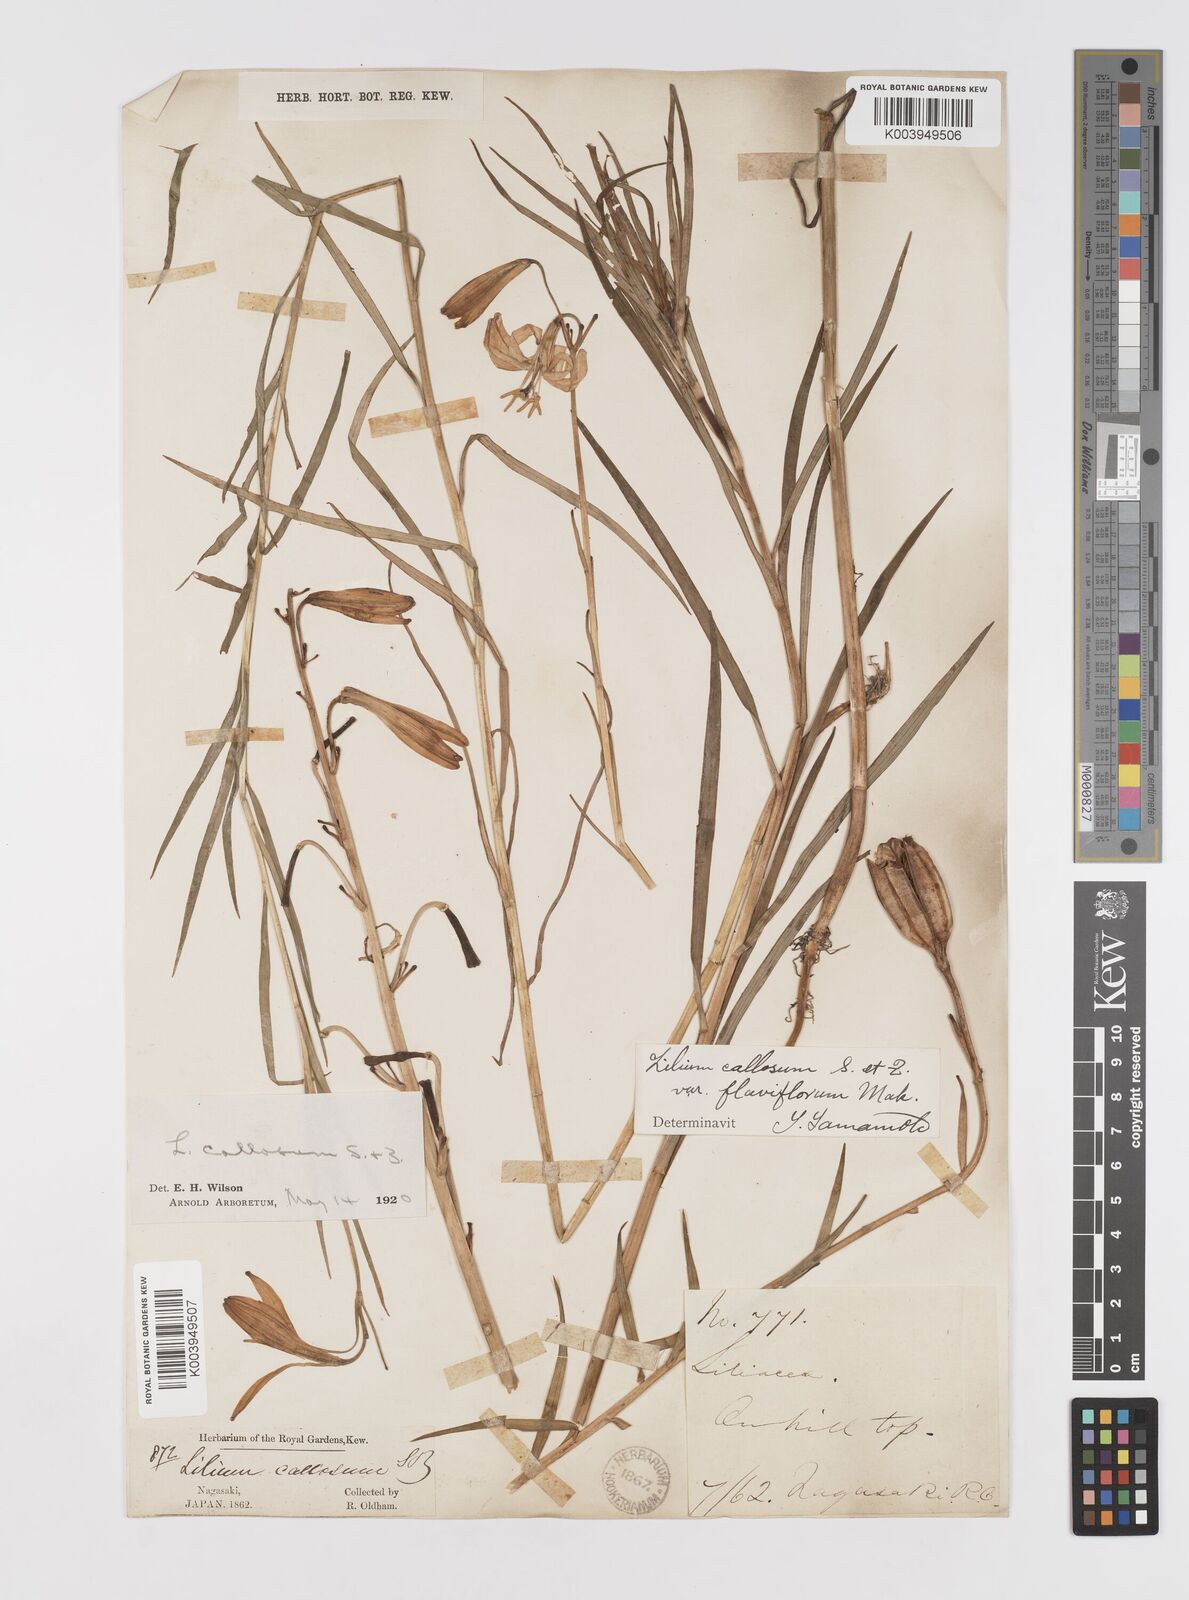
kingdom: Plantae
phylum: Tracheophyta
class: Liliopsida
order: Liliales
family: Liliaceae
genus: Lilium
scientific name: Lilium callosum
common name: Slim-stem lily
